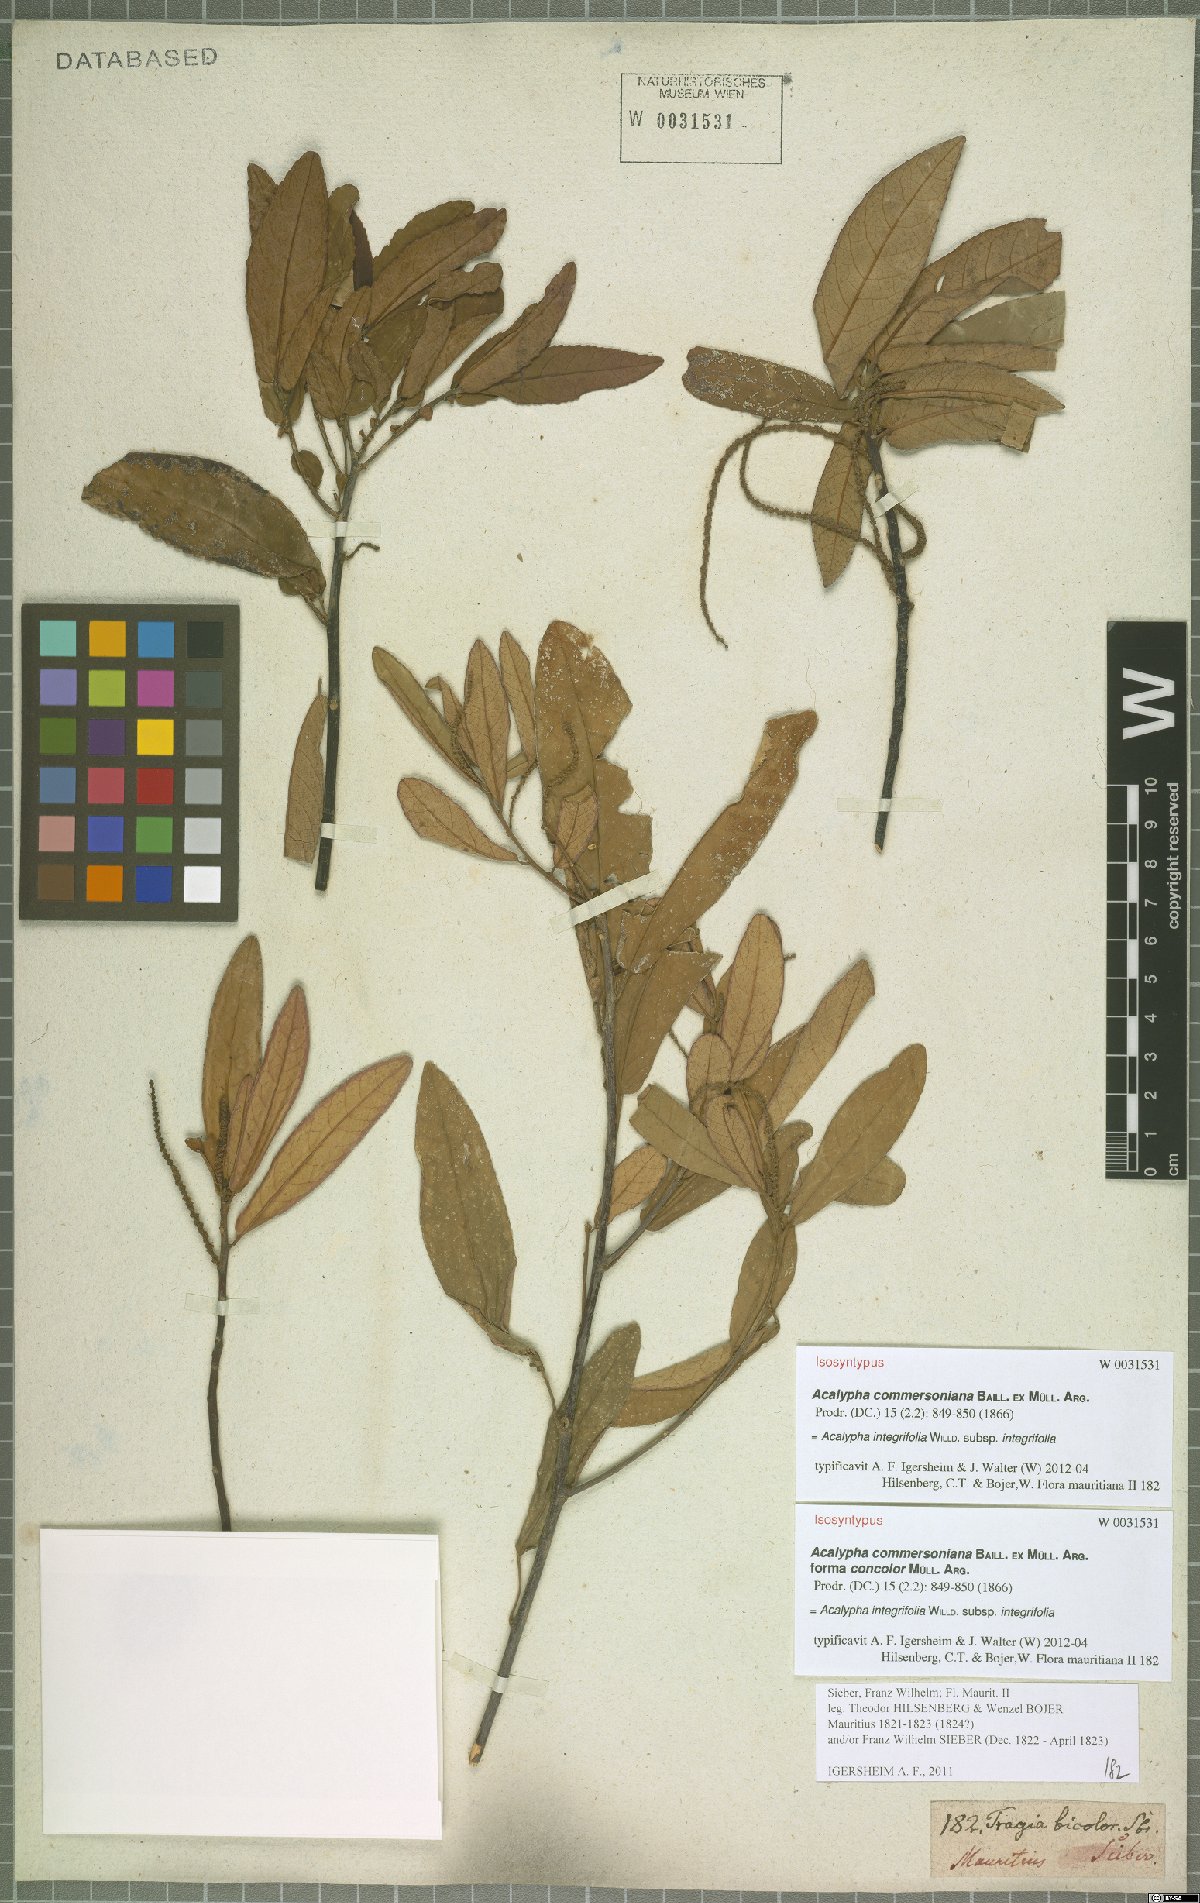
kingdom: Plantae
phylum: Tracheophyta
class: Magnoliopsida
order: Malpighiales
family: Euphorbiaceae
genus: Acalypha
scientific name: Acalypha integrifolia
